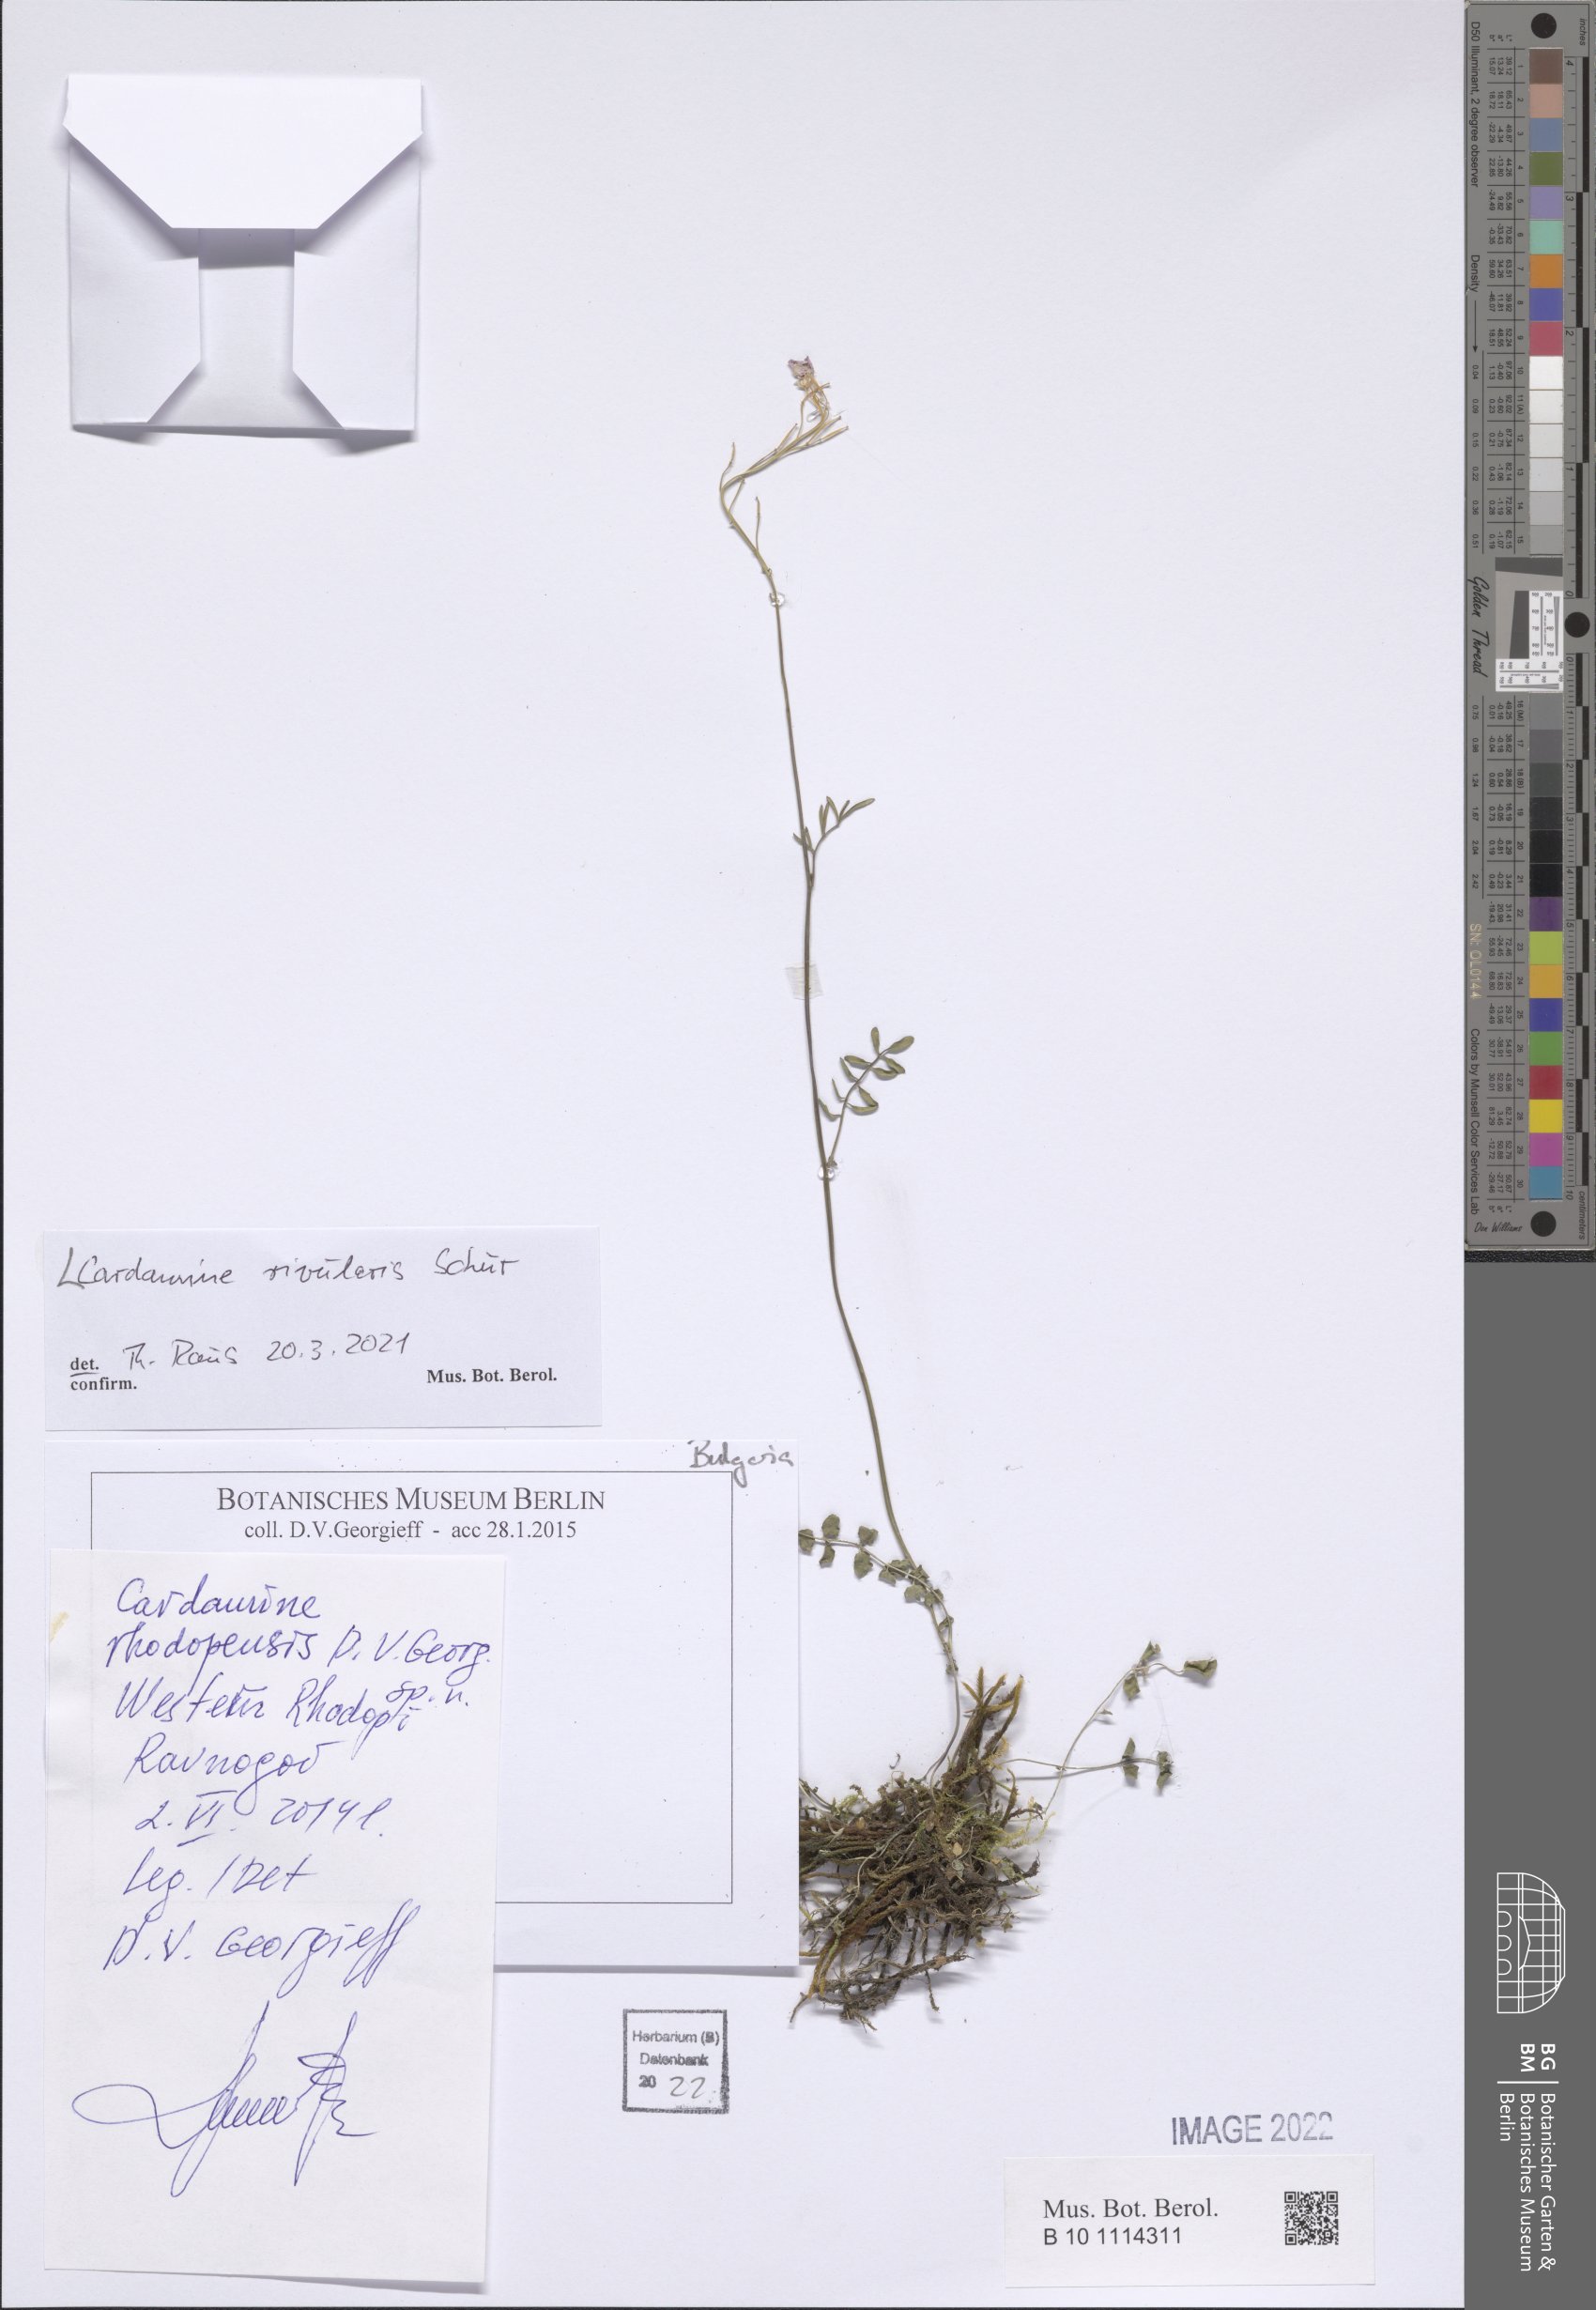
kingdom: Plantae
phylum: Tracheophyta
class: Magnoliopsida
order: Brassicales
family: Brassicaceae
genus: Cardamine
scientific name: Cardamine pratensis
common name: Cuckoo flower
